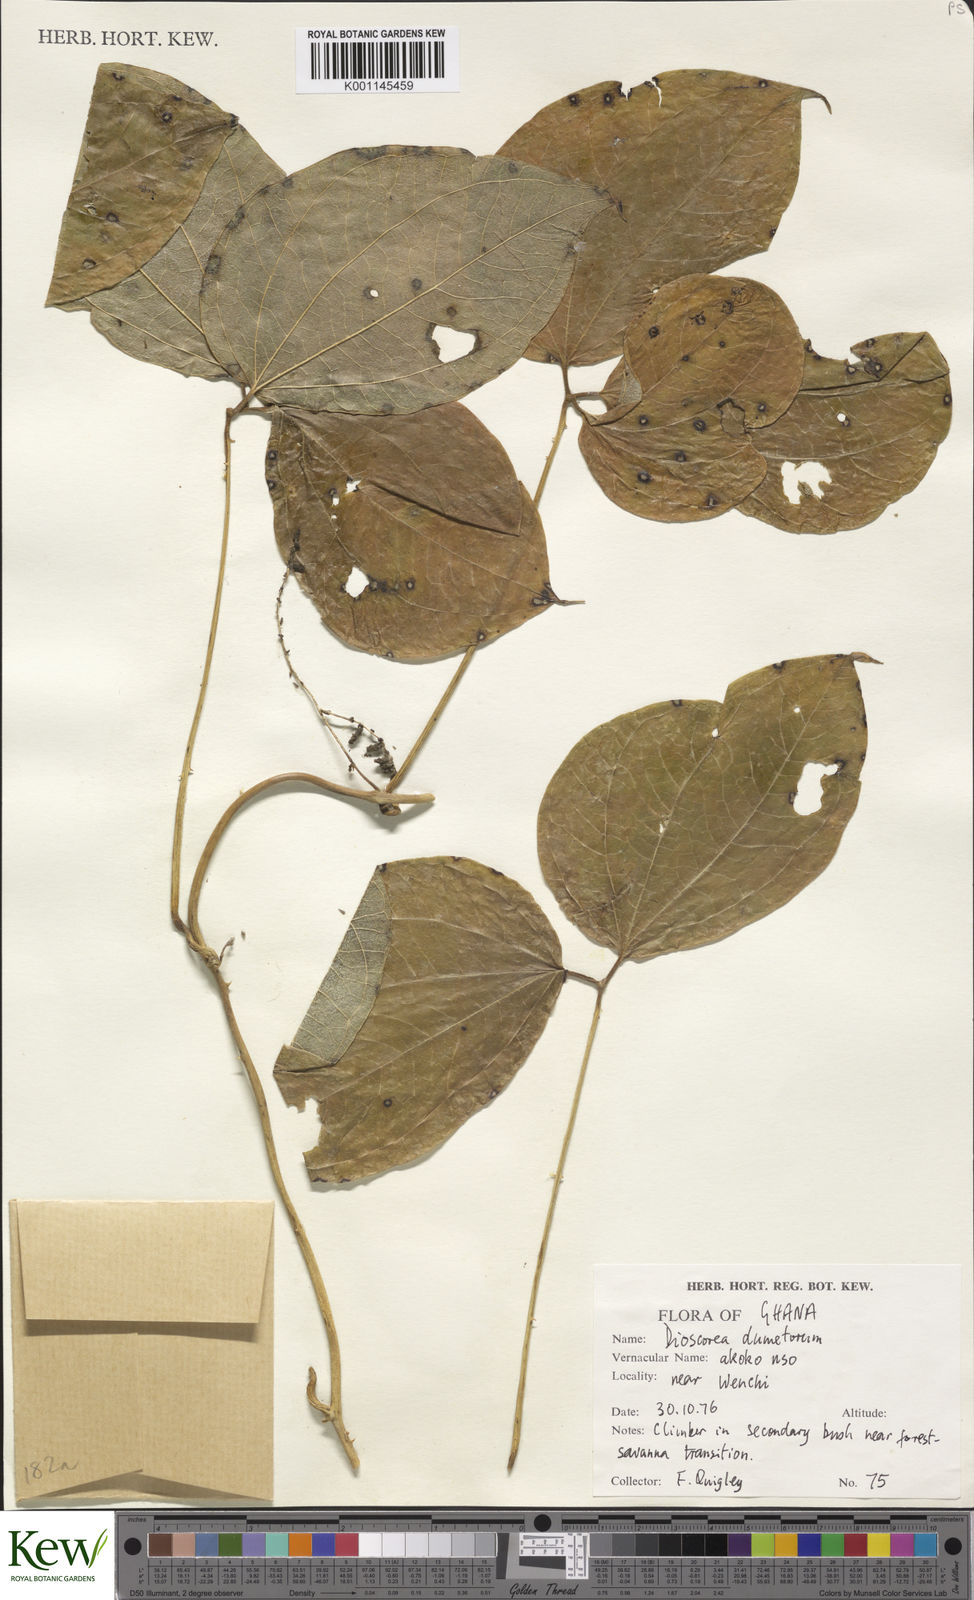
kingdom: Plantae
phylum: Tracheophyta
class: Liliopsida
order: Dioscoreales
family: Dioscoreaceae
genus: Dioscorea
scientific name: Dioscorea dumetorum
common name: African bitter yam
